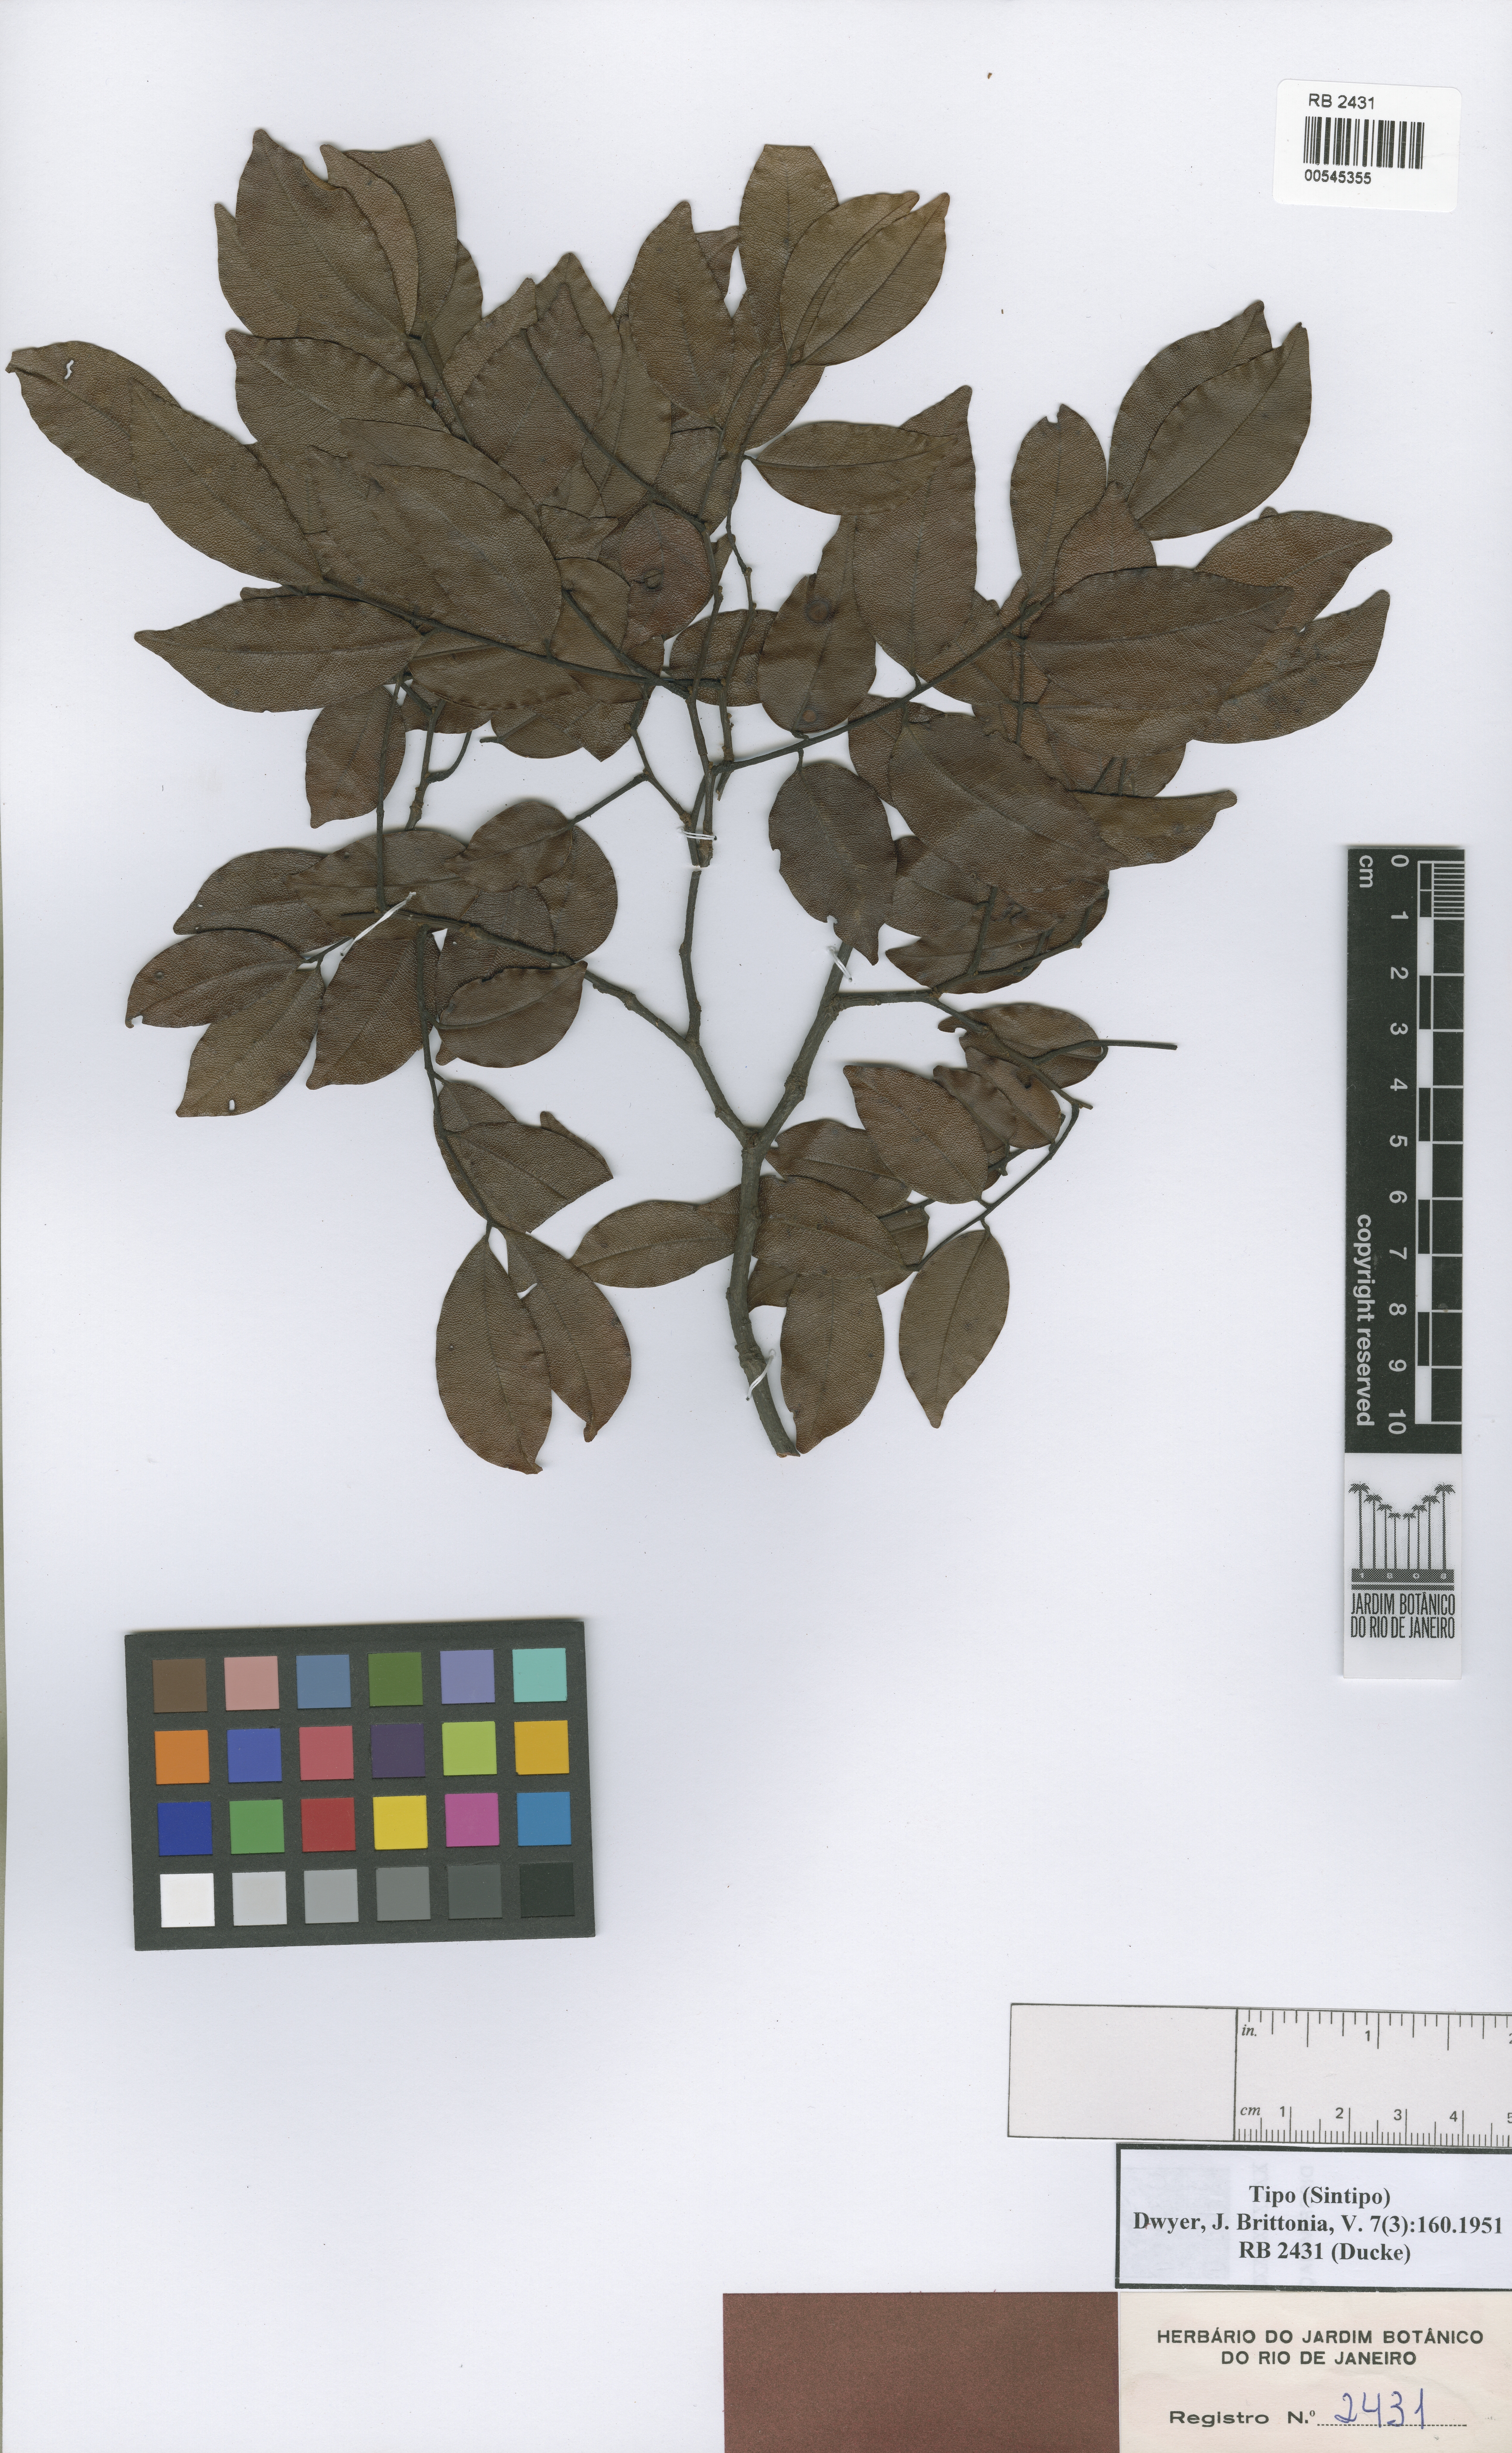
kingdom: Plantae
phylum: Tracheophyta
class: Magnoliopsida
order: Fabales
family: Fabaceae
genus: Copaifera
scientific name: Copaifera lucens
